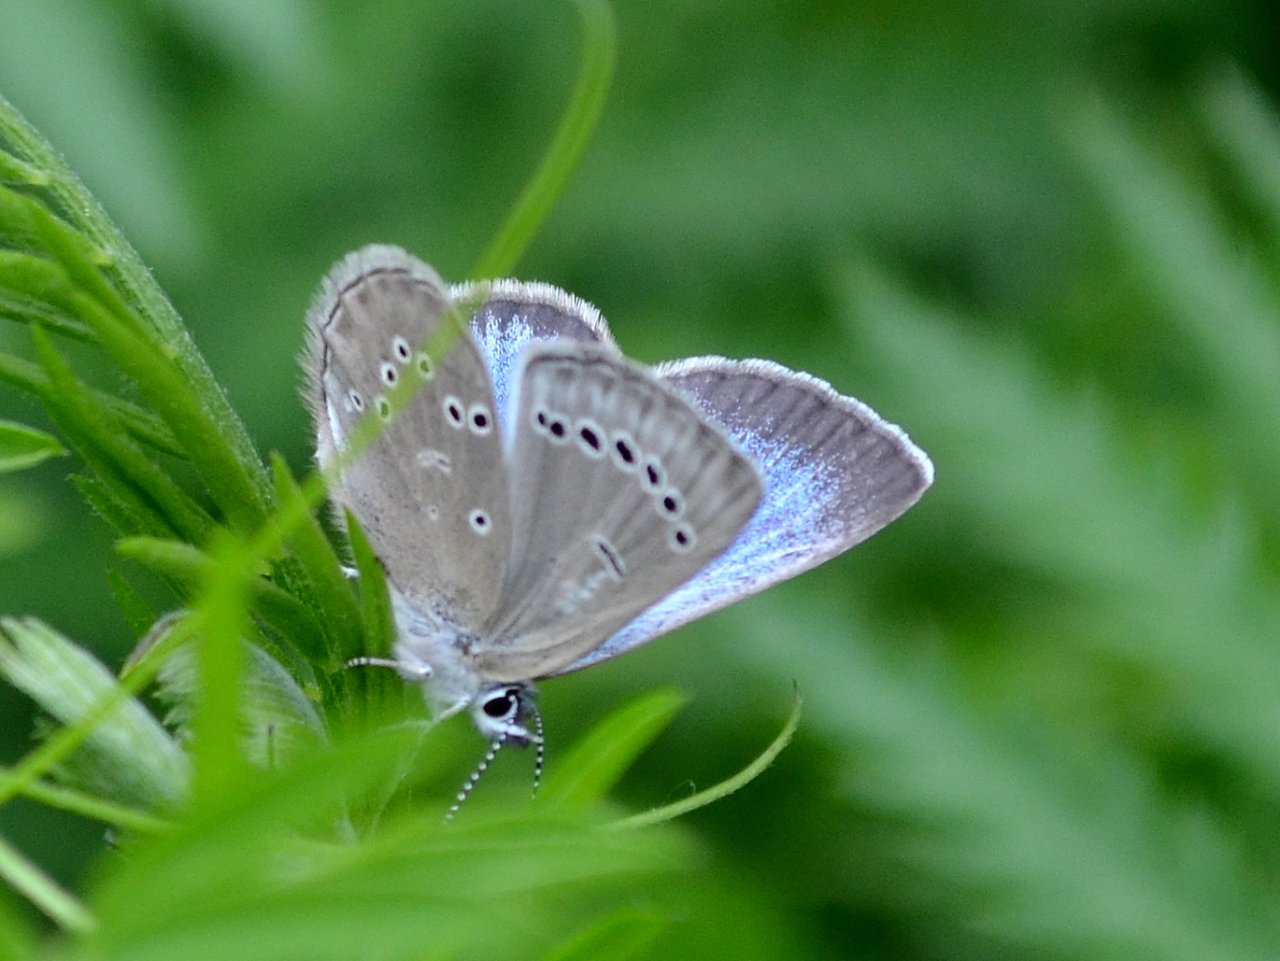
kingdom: Animalia
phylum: Arthropoda
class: Insecta
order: Lepidoptera
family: Lycaenidae
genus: Glaucopsyche
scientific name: Glaucopsyche lygdamus
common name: Silvery Blue
